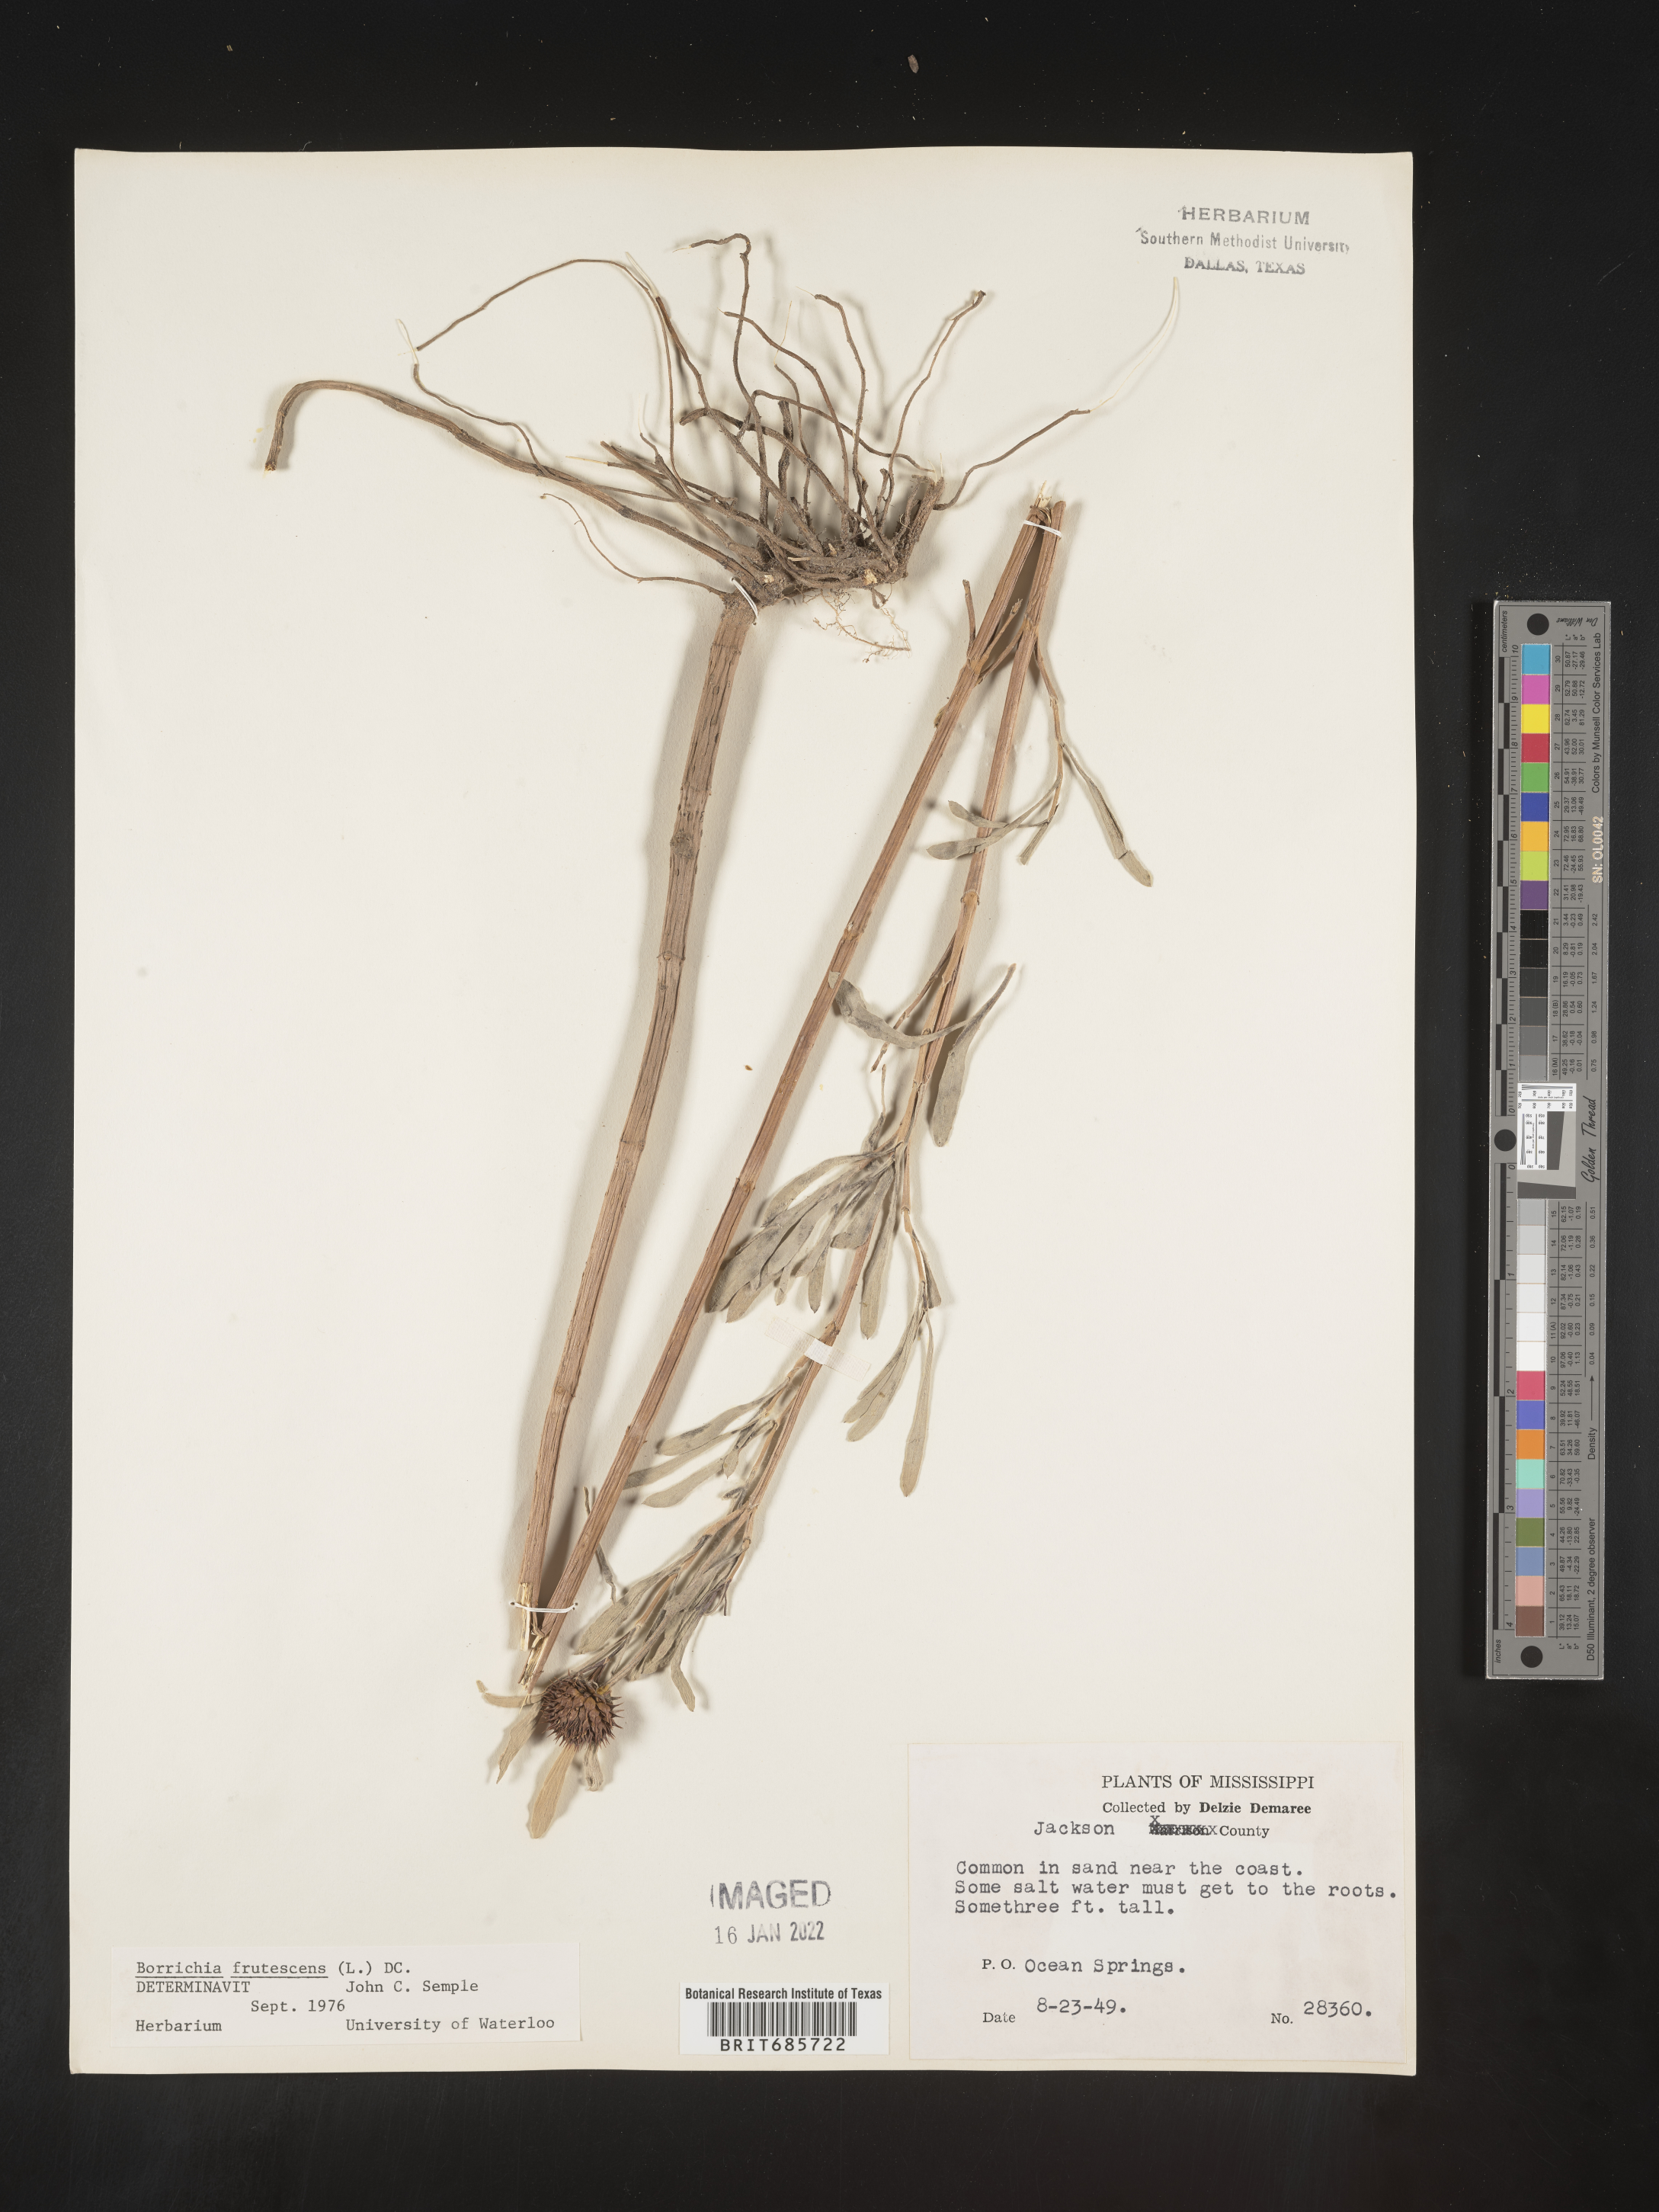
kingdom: Plantae
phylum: Tracheophyta
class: Magnoliopsida
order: Asterales
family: Asteraceae
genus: Borrichia
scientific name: Borrichia frutescens
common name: Sea oxeye
